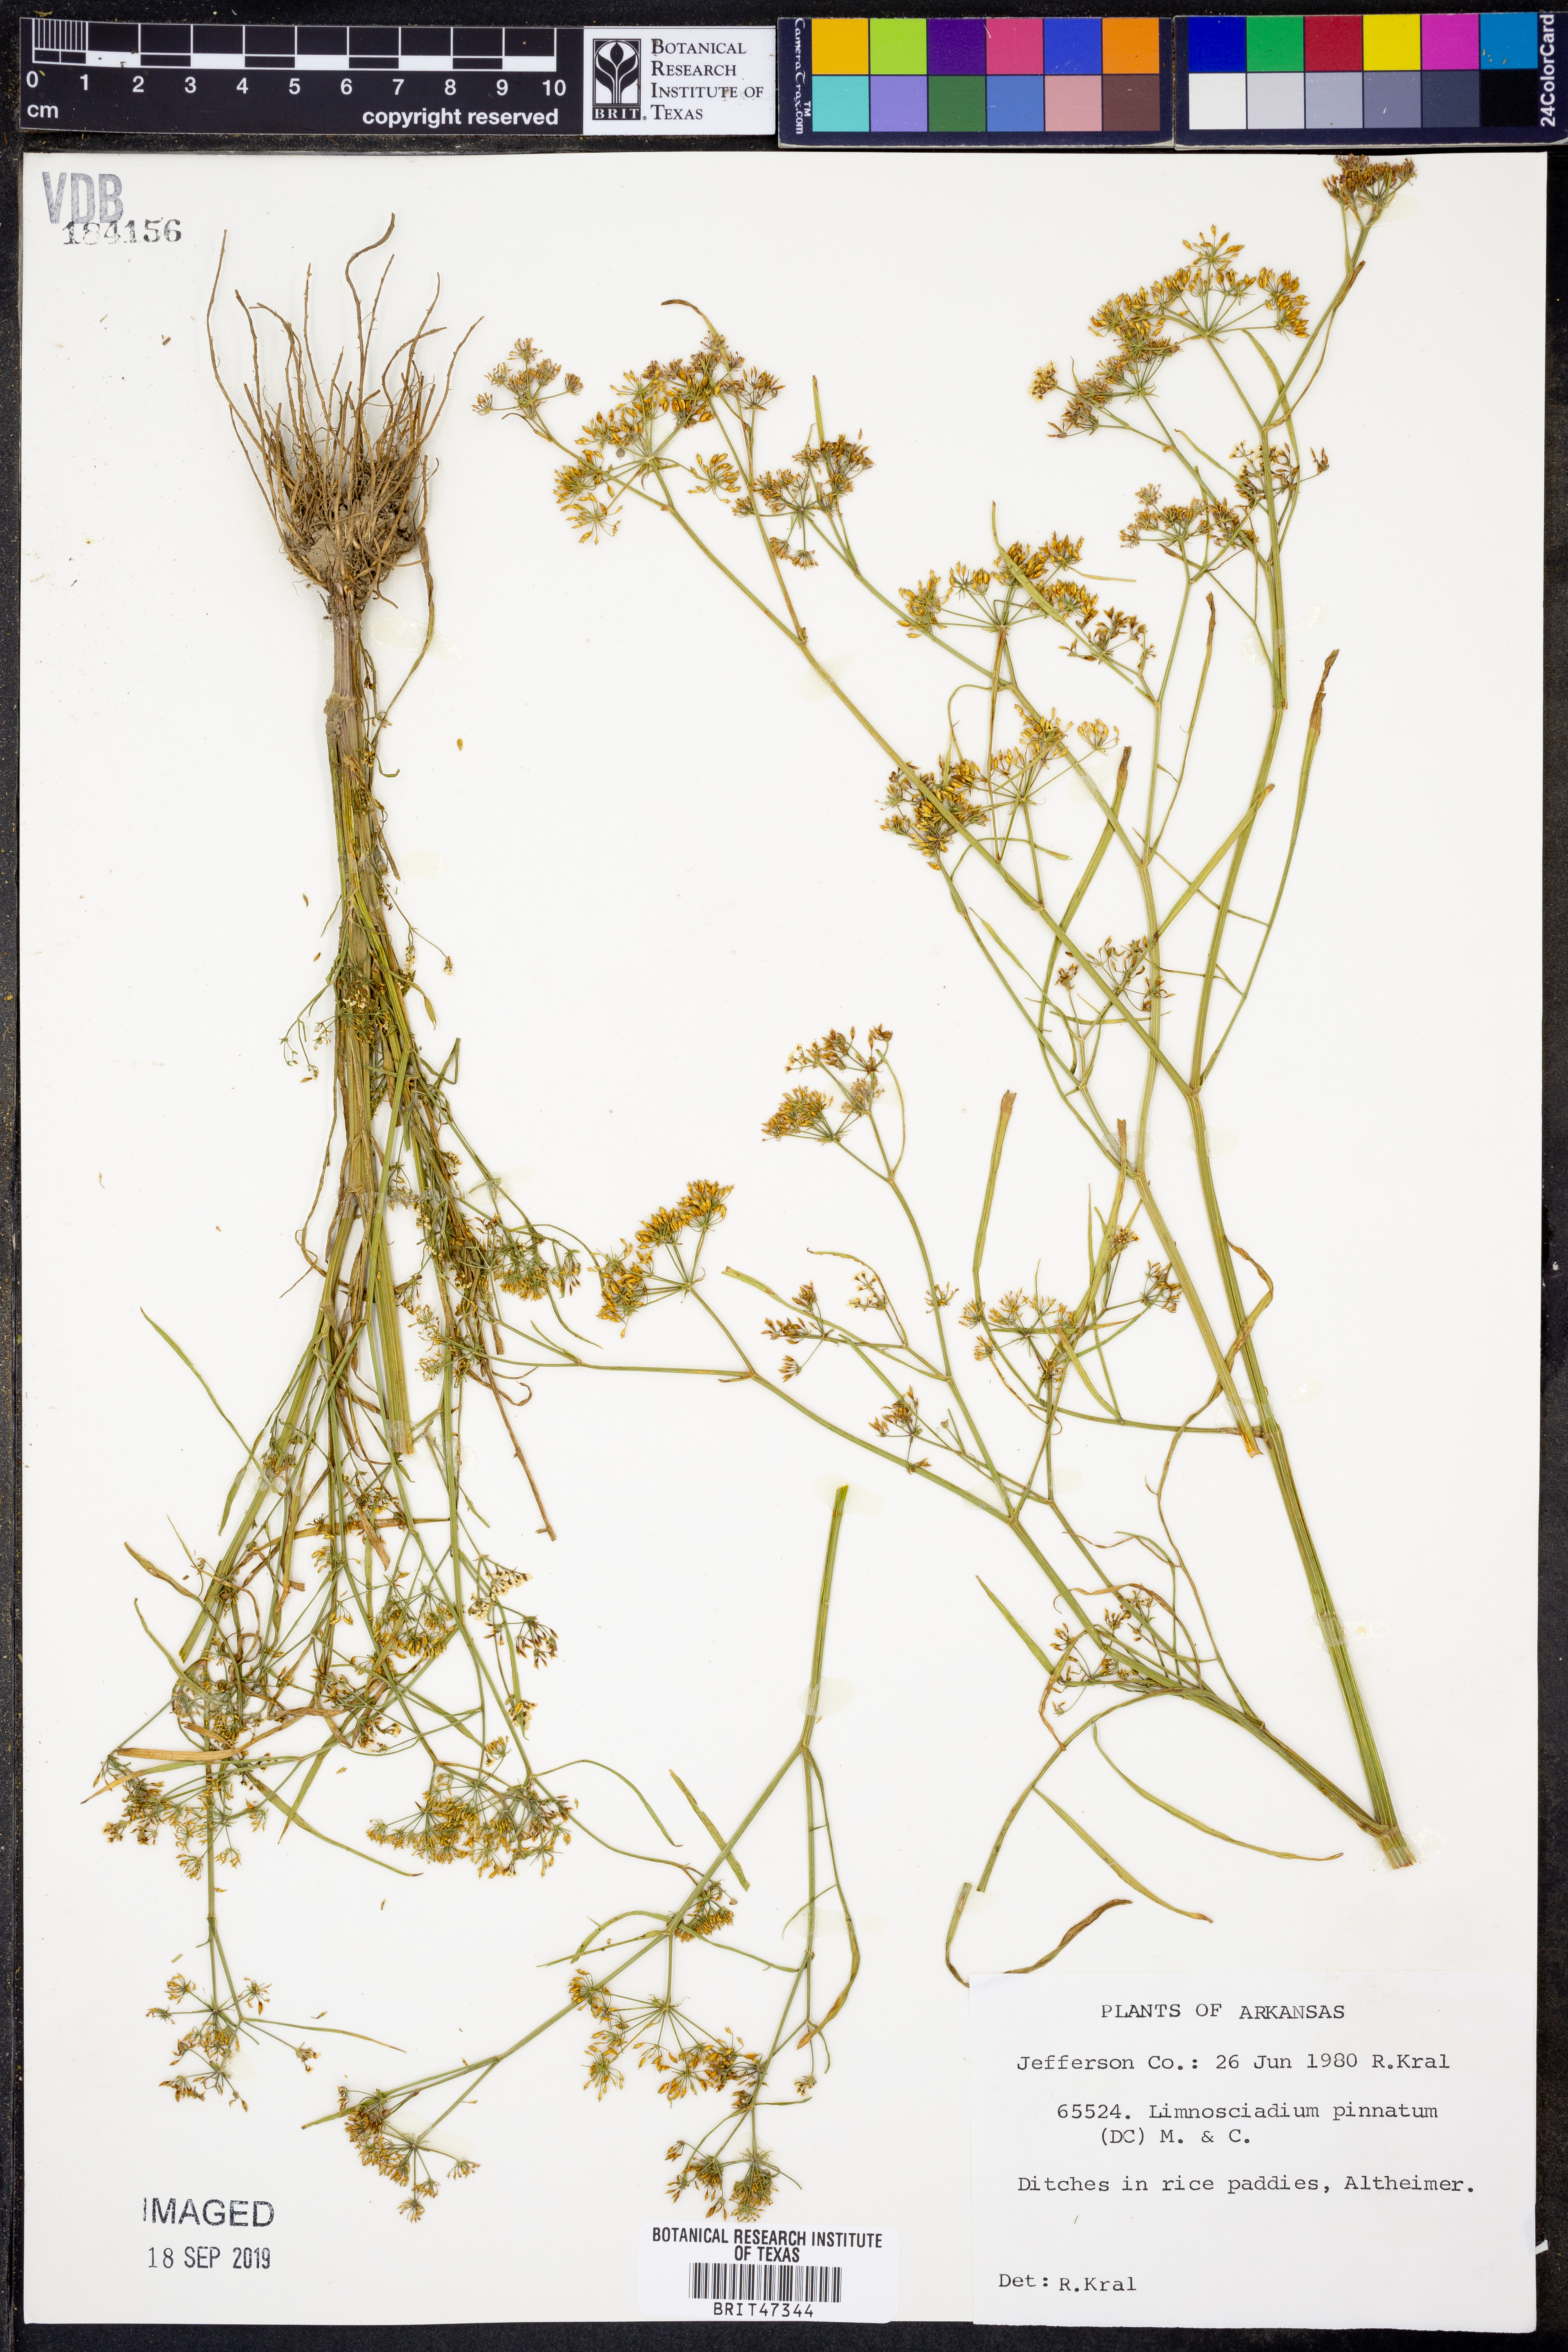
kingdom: Plantae
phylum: Tracheophyta
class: Magnoliopsida
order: Apiales
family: Apiaceae
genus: Limnosciadium
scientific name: Limnosciadium pinnatum
